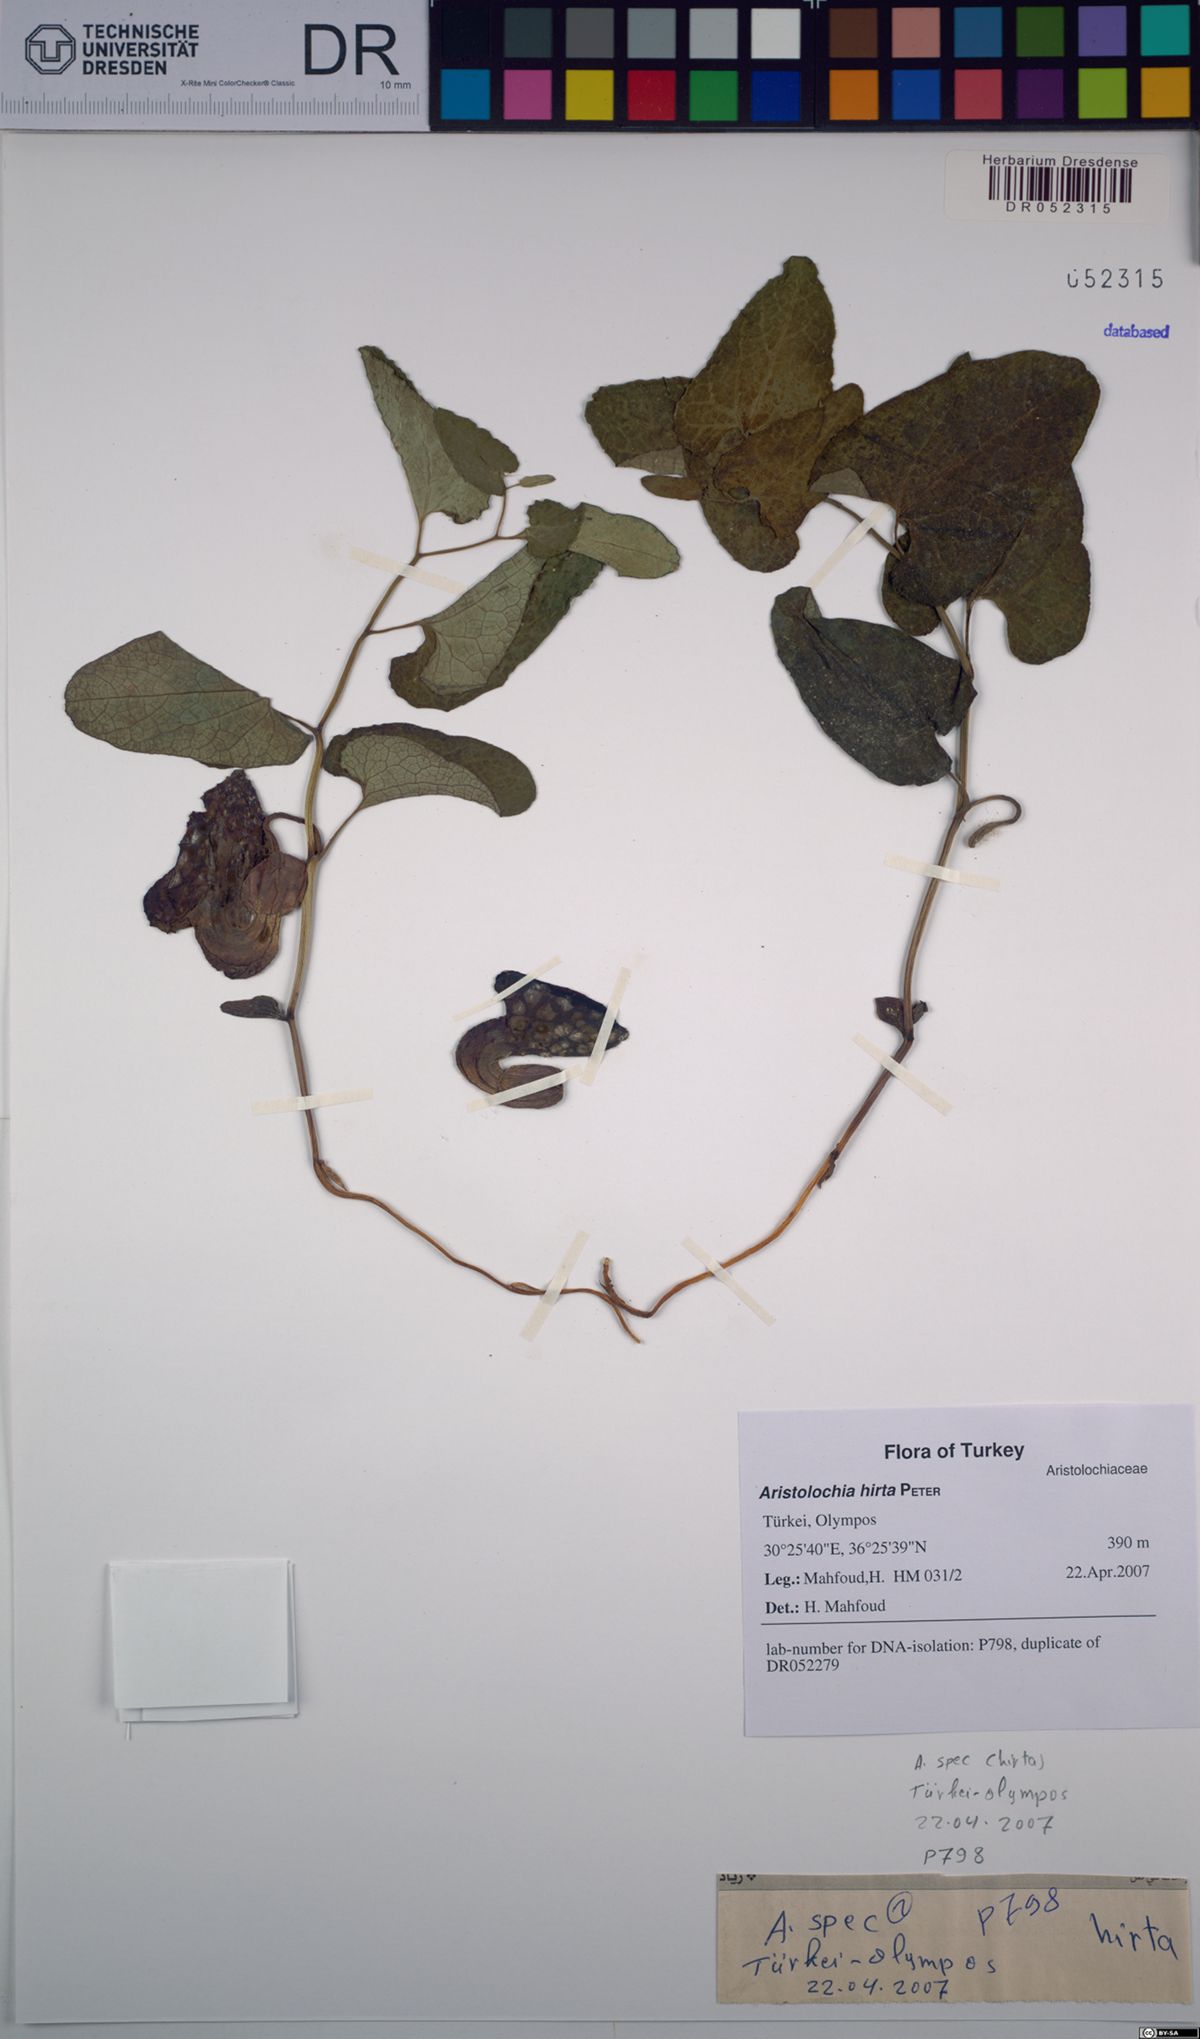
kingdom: Plantae
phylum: Tracheophyta
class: Magnoliopsida
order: Piperales
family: Aristolochiaceae
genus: Aristolochia
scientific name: Aristolochia hockii
